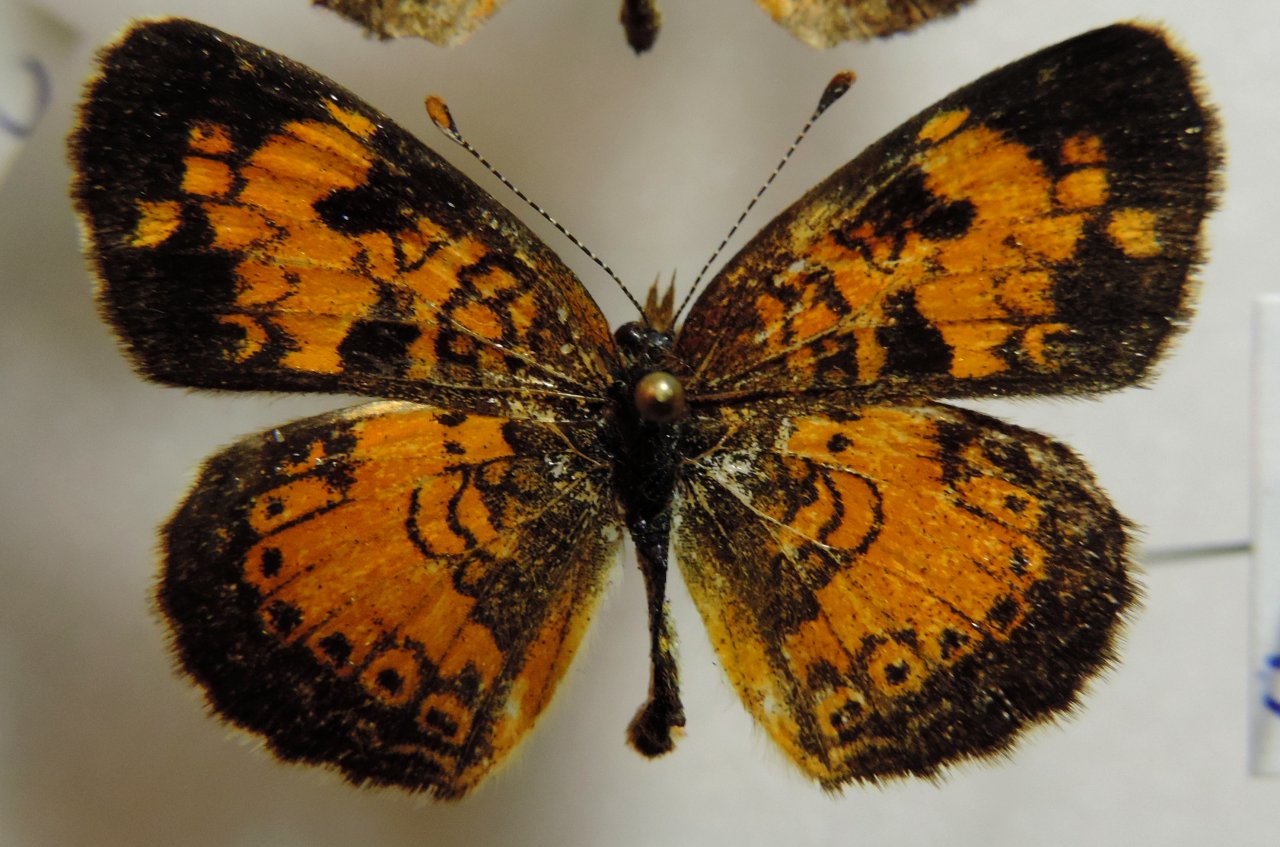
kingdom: Animalia
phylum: Arthropoda
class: Insecta
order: Lepidoptera
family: Nymphalidae
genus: Phyciodes
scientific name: Phyciodes tharos
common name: Northern Crescent
